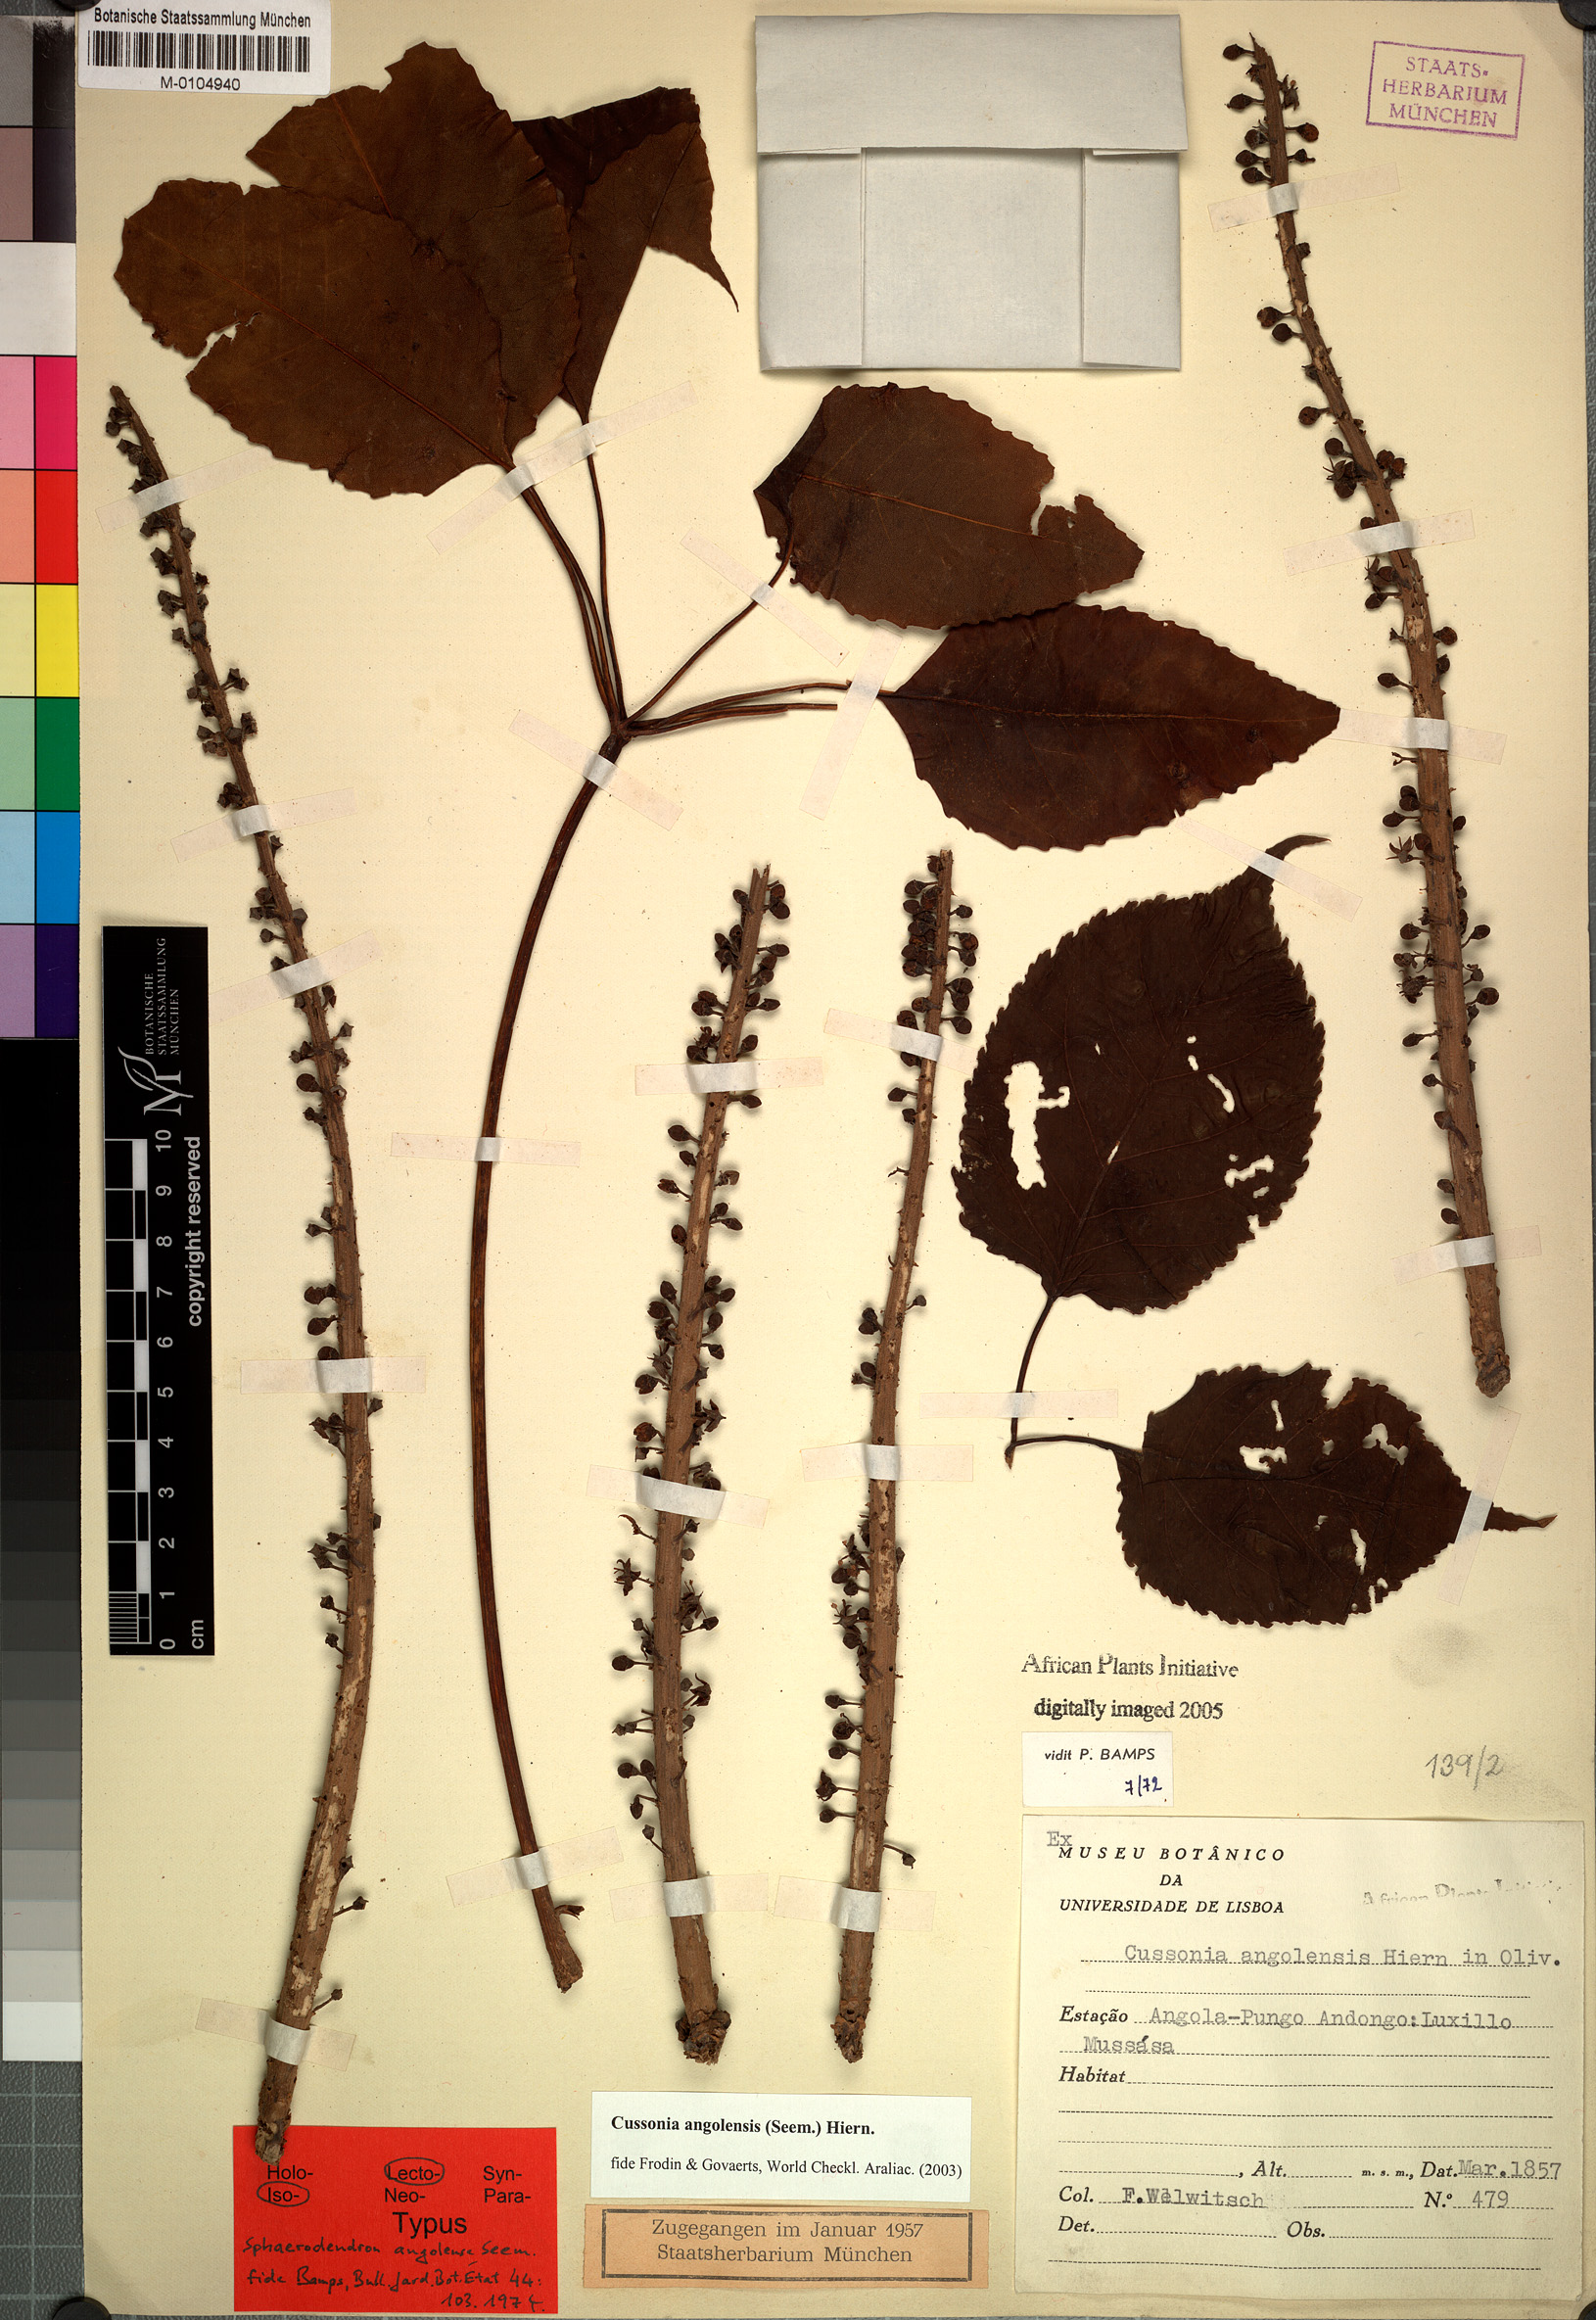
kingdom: Plantae
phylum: Tracheophyta
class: Magnoliopsida
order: Apiales
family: Araliaceae
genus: Cussonia
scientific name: Cussonia angolensis
